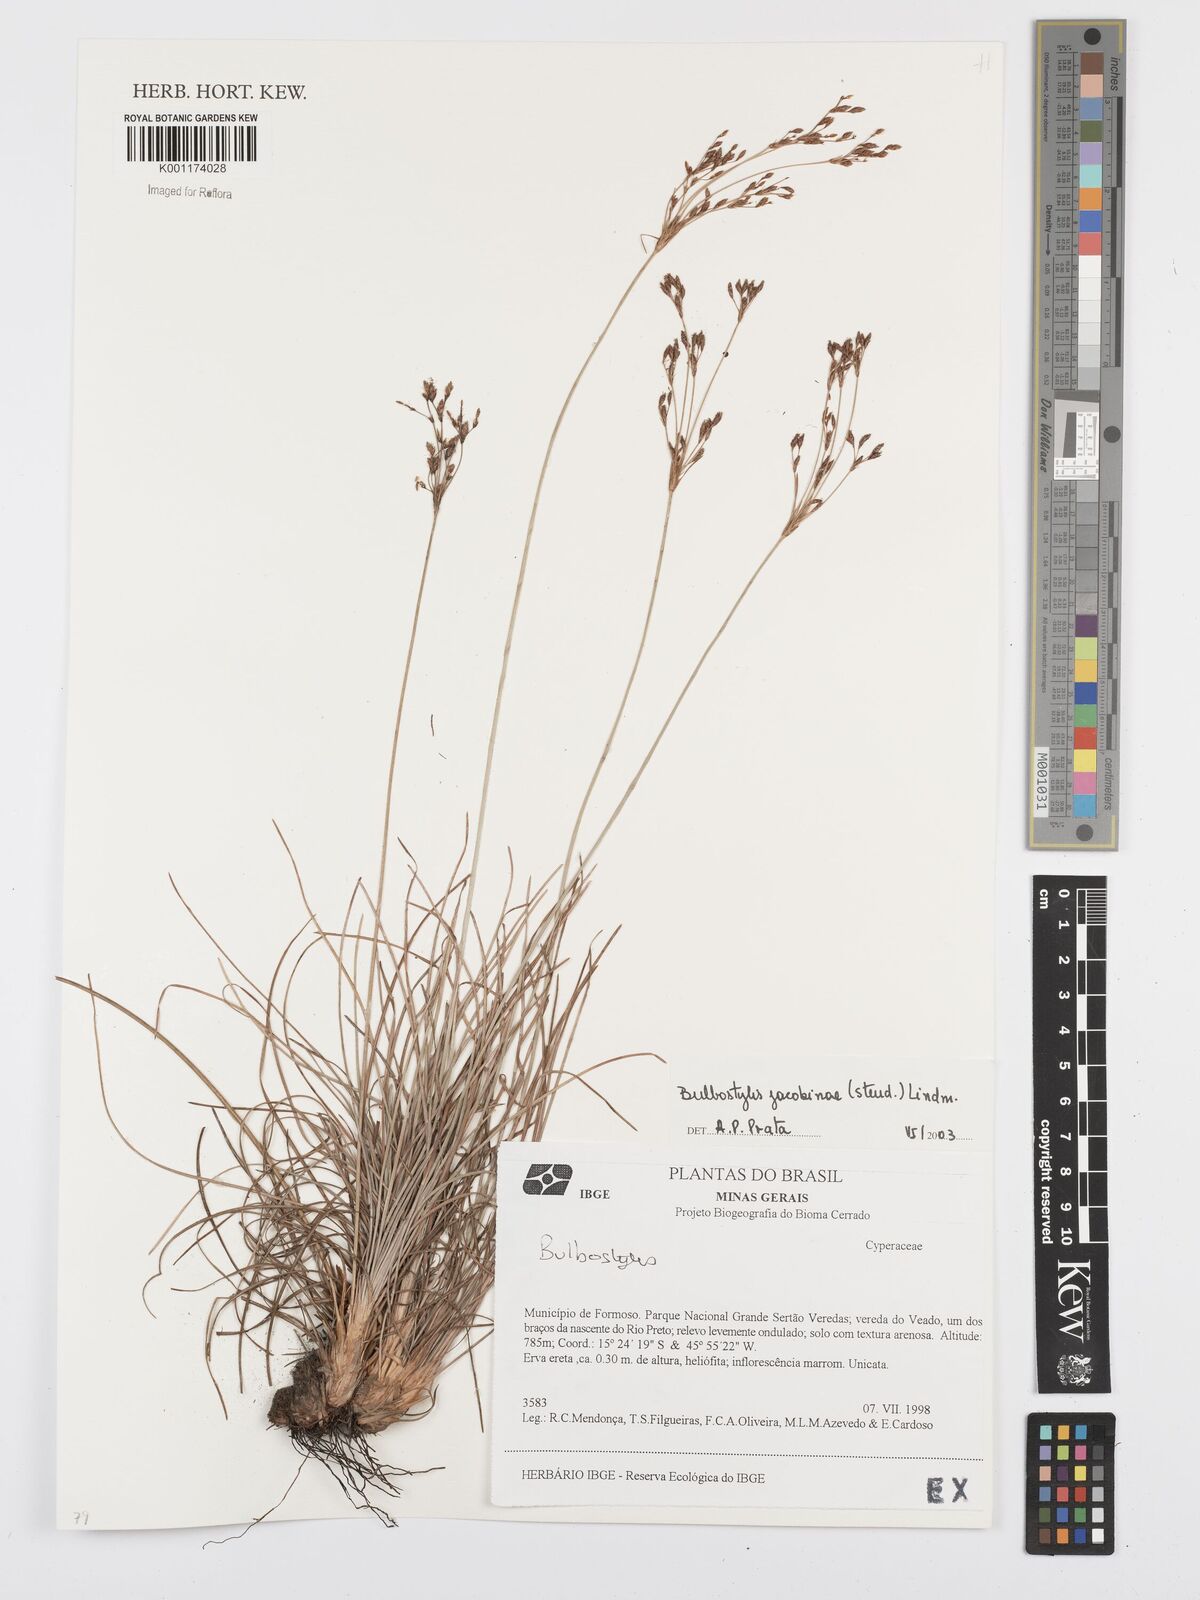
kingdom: Plantae
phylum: Tracheophyta
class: Liliopsida
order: Poales
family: Cyperaceae
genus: Bulbostylis
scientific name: Bulbostylis jacobinae
